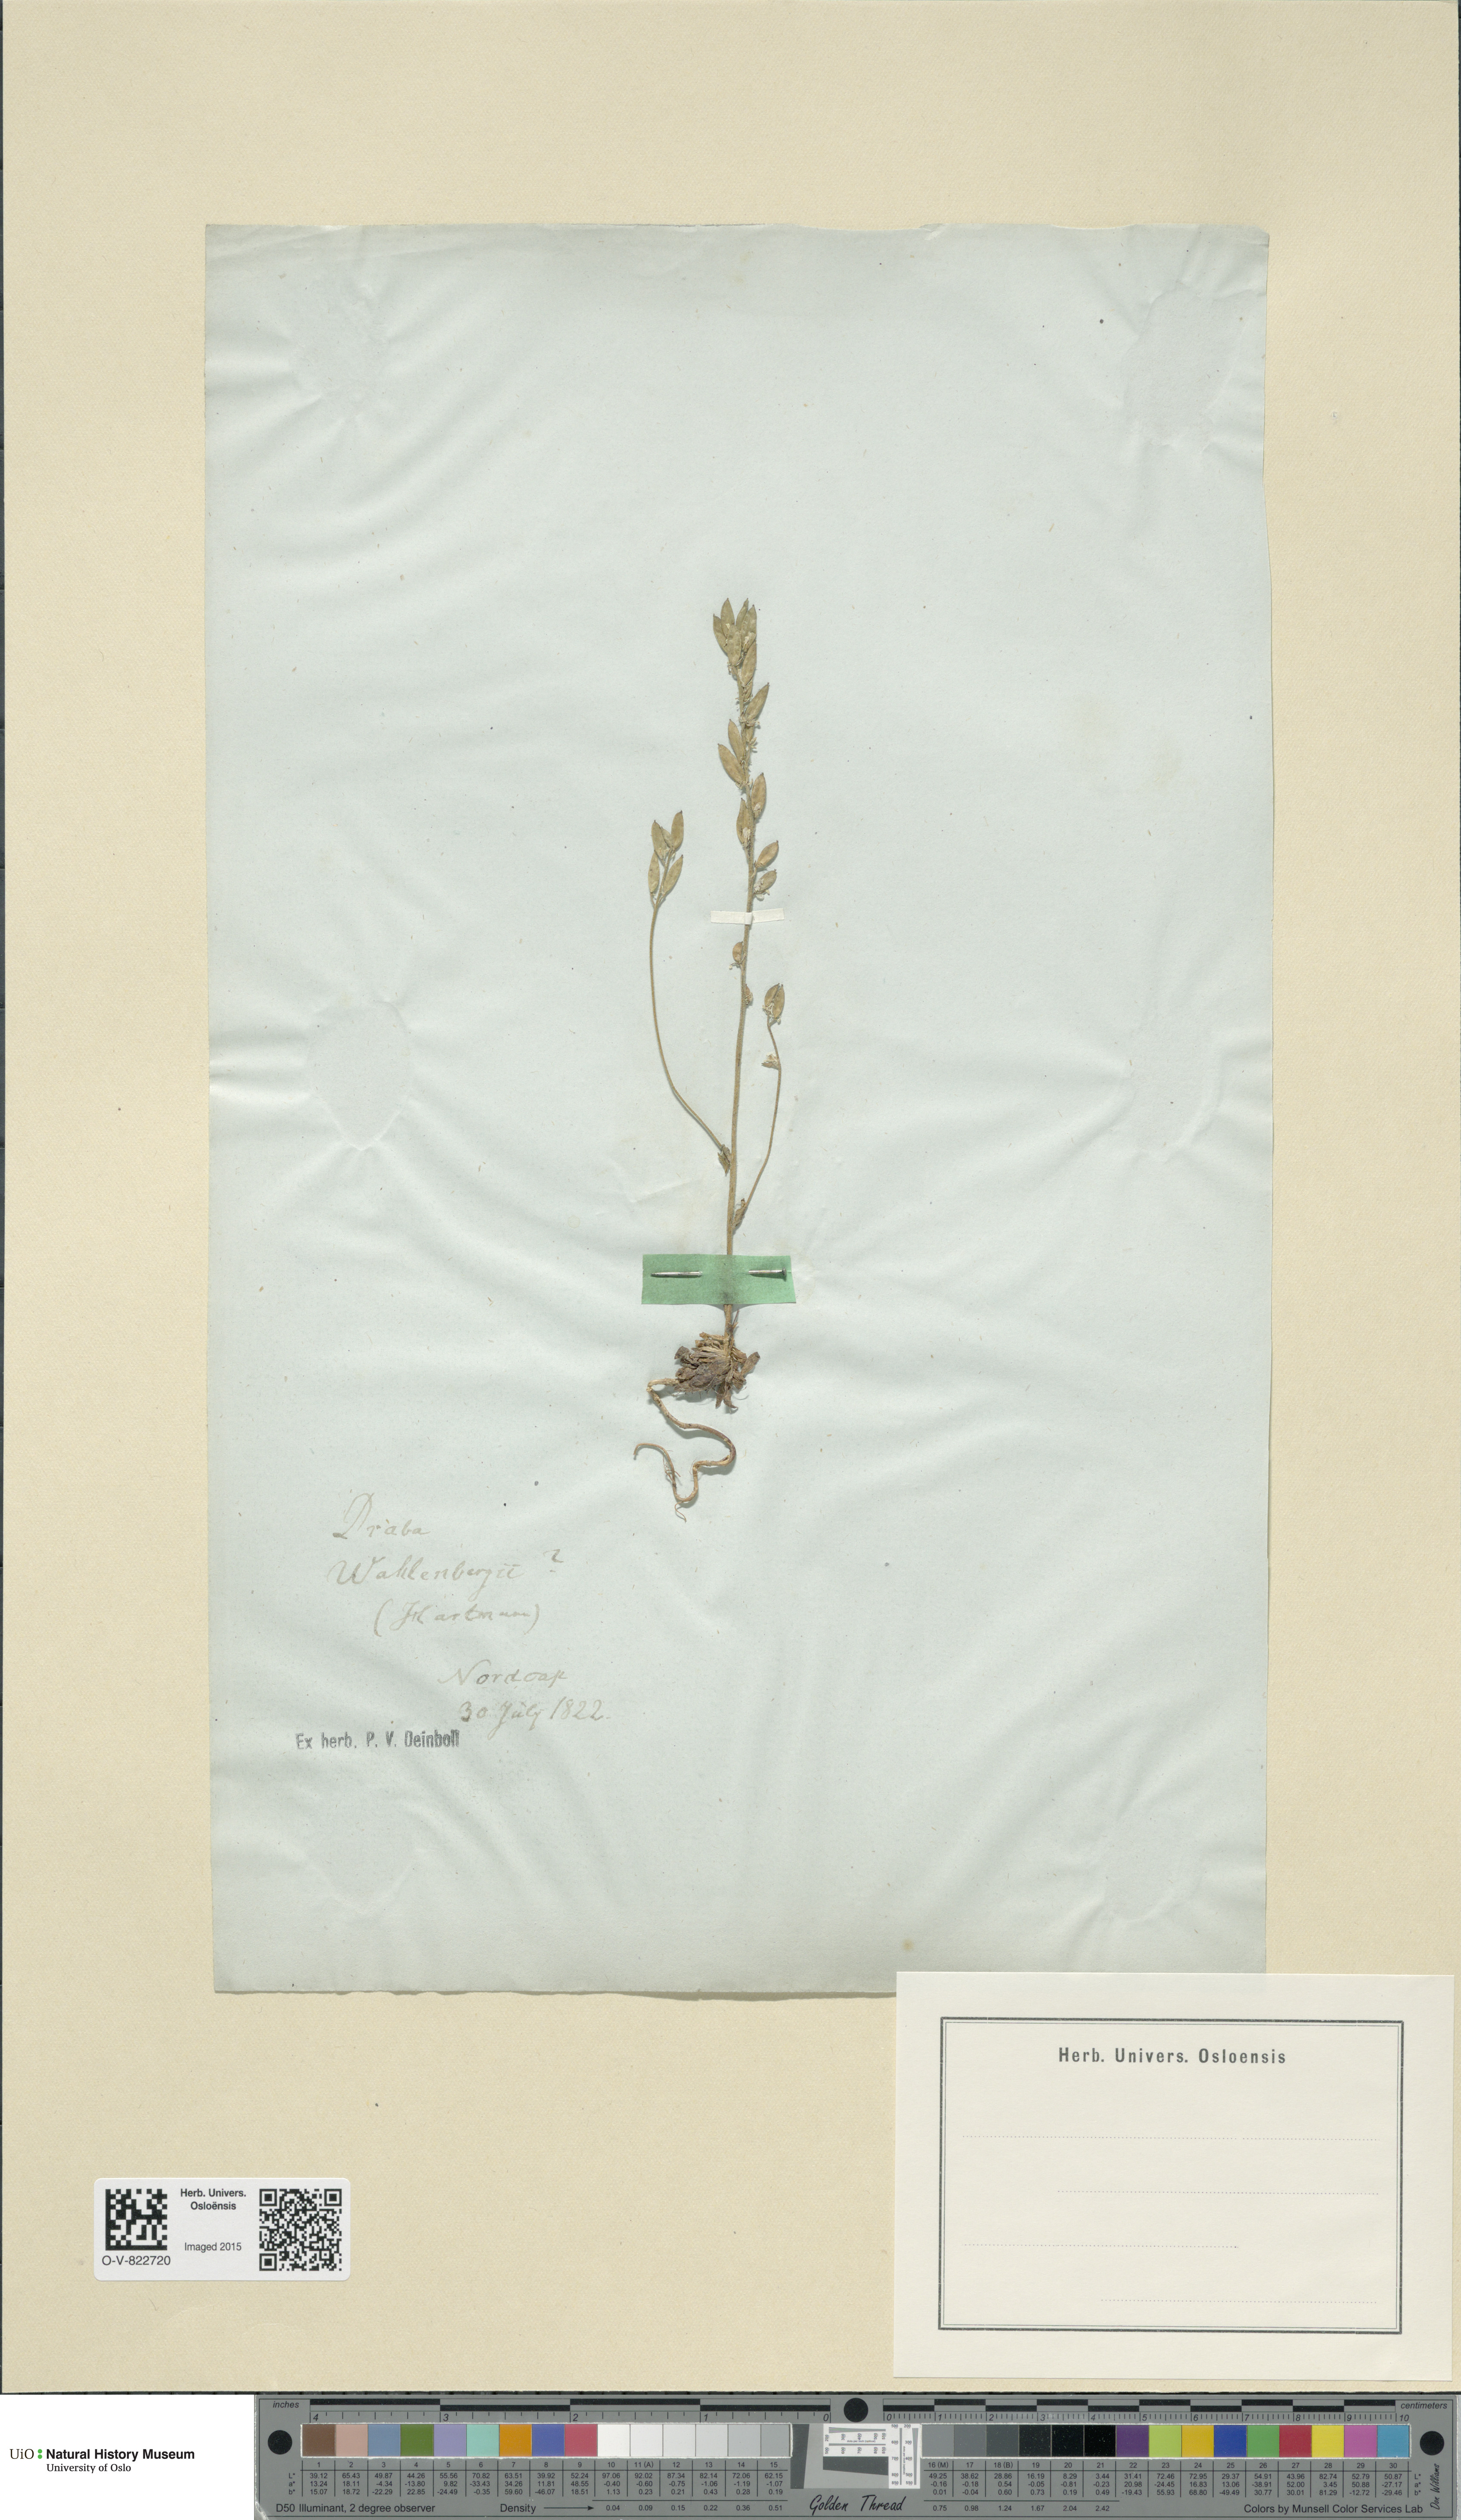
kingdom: Plantae
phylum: Tracheophyta
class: Magnoliopsida
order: Brassicales
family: Brassicaceae
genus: Draba
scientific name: Draba lactea
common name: Milky draba
